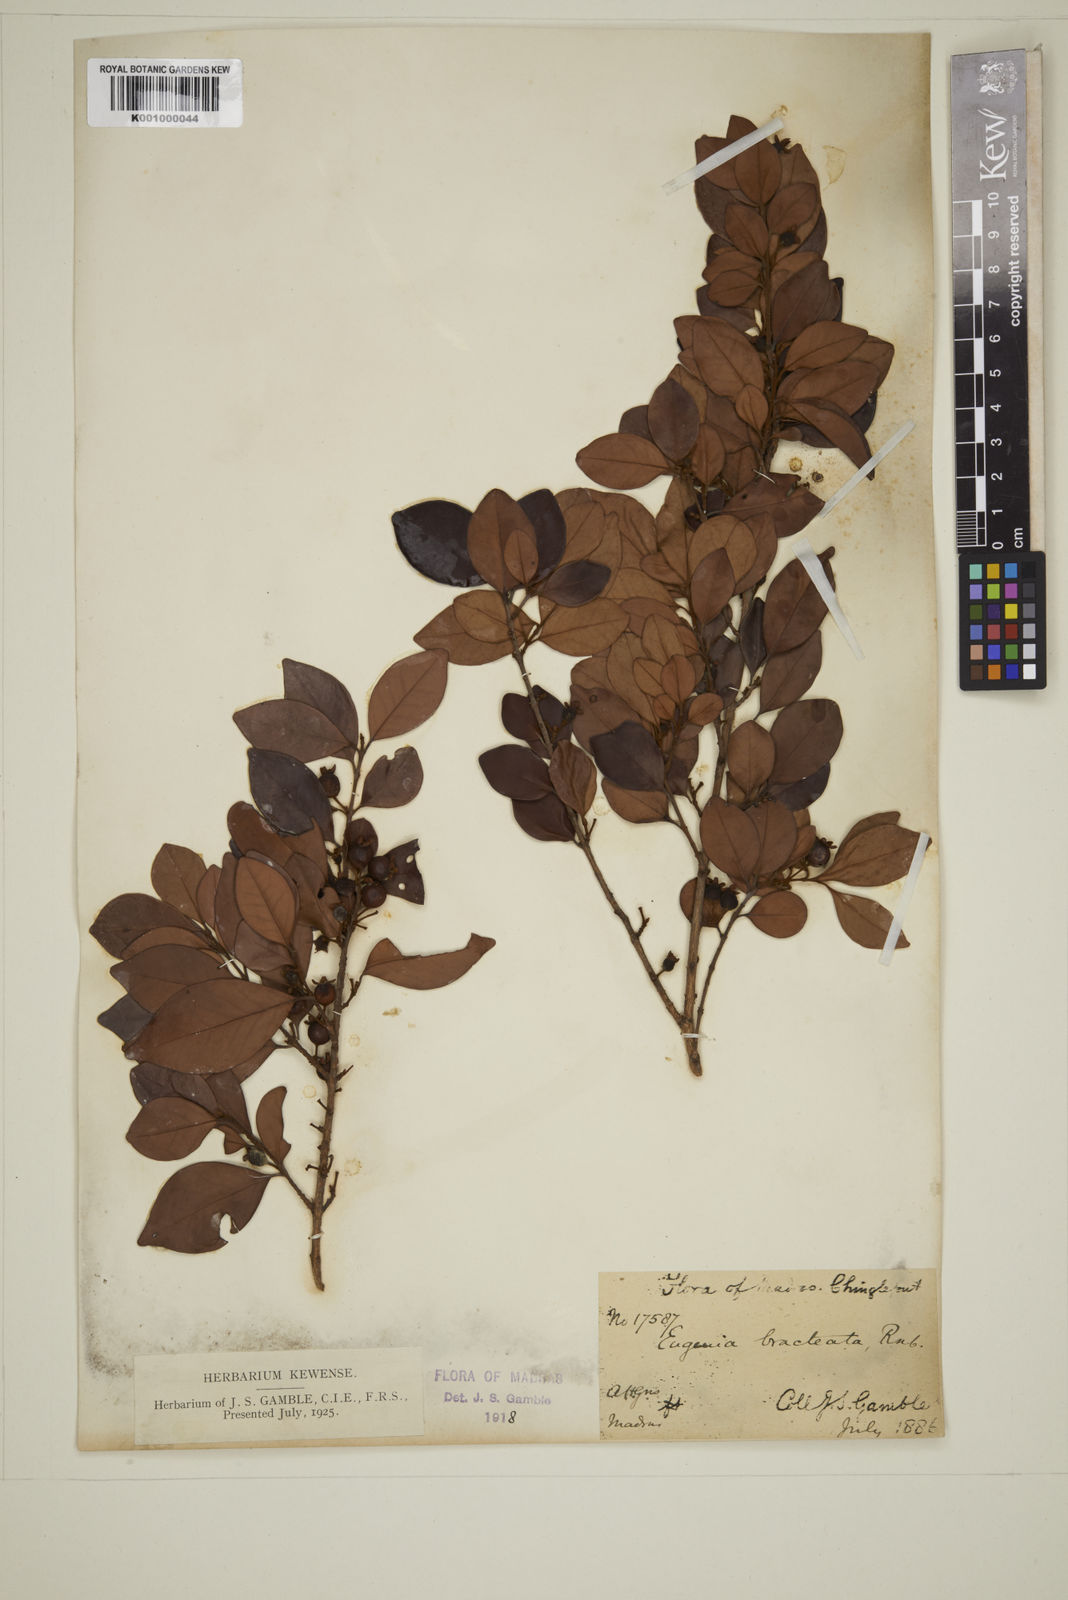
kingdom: Plantae
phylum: Tracheophyta
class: Magnoliopsida
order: Myrtales
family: Myrtaceae
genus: Myrcia
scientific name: Myrcia bracteata
